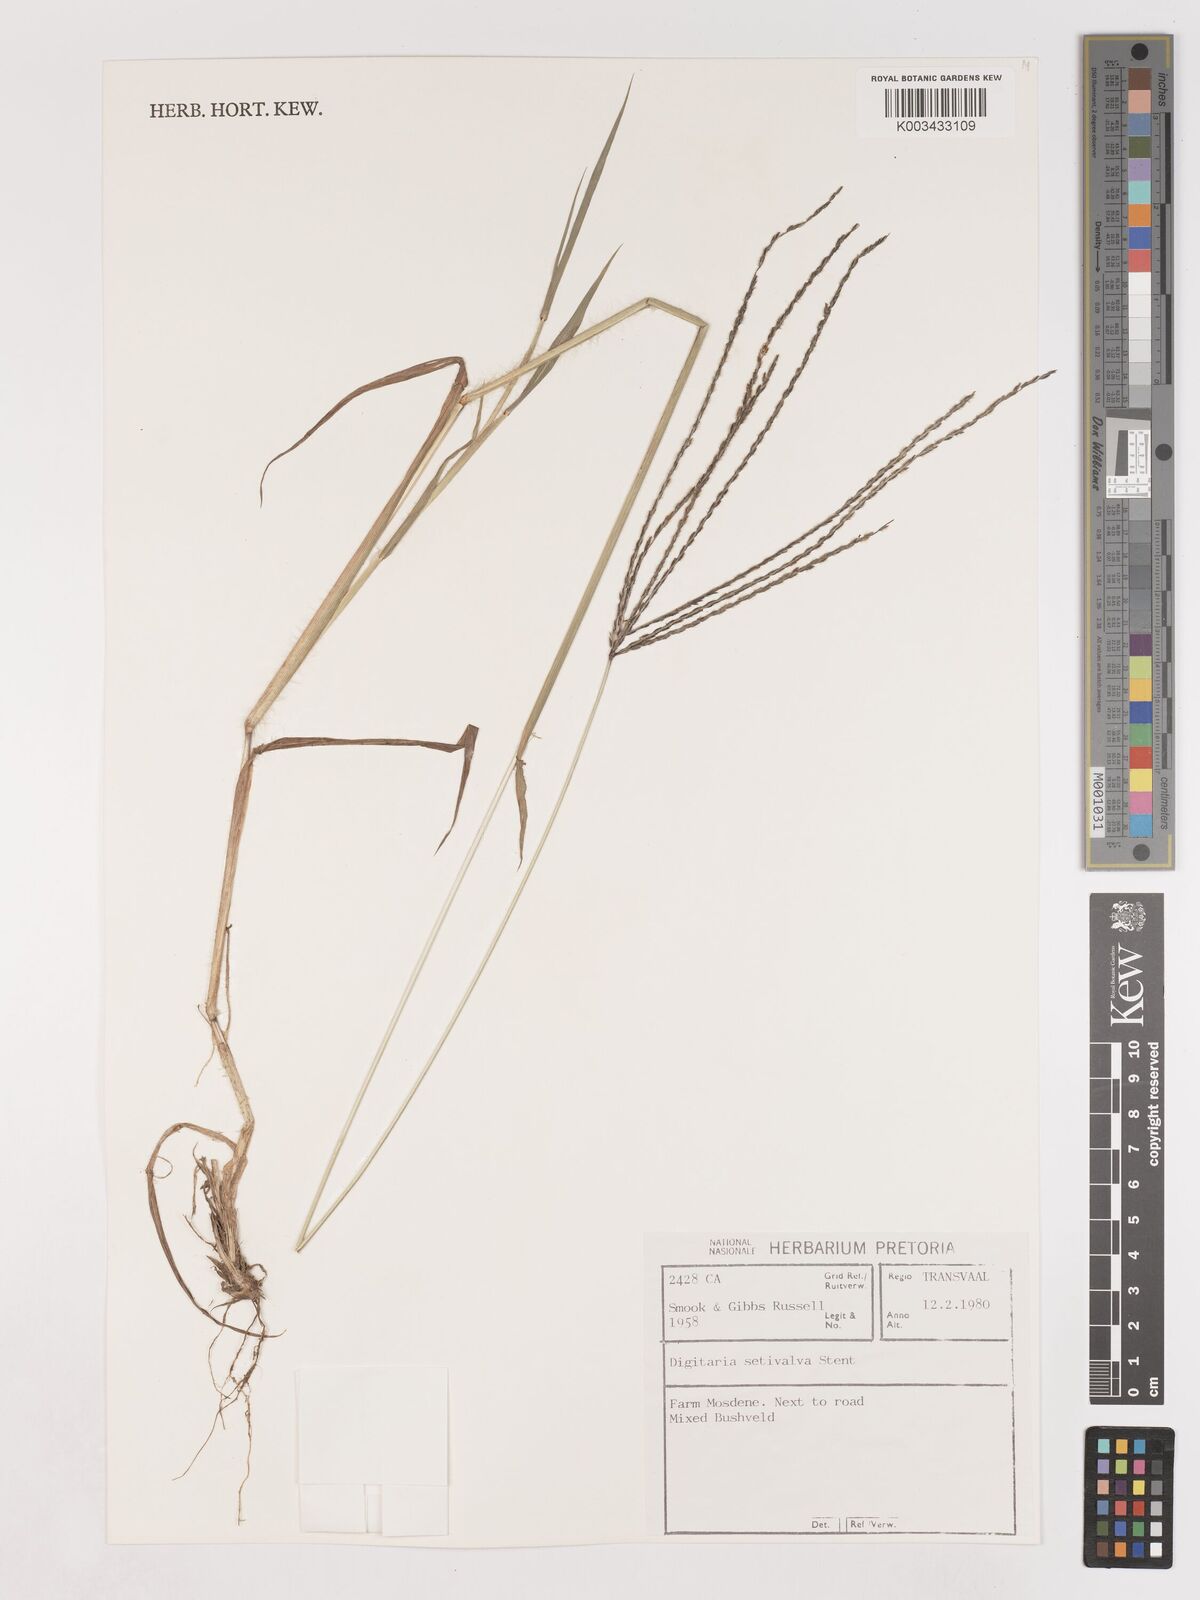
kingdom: Plantae
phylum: Tracheophyta
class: Liliopsida
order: Poales
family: Poaceae
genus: Digitaria
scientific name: Digitaria milanjiana
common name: Madagascar crabgrass
